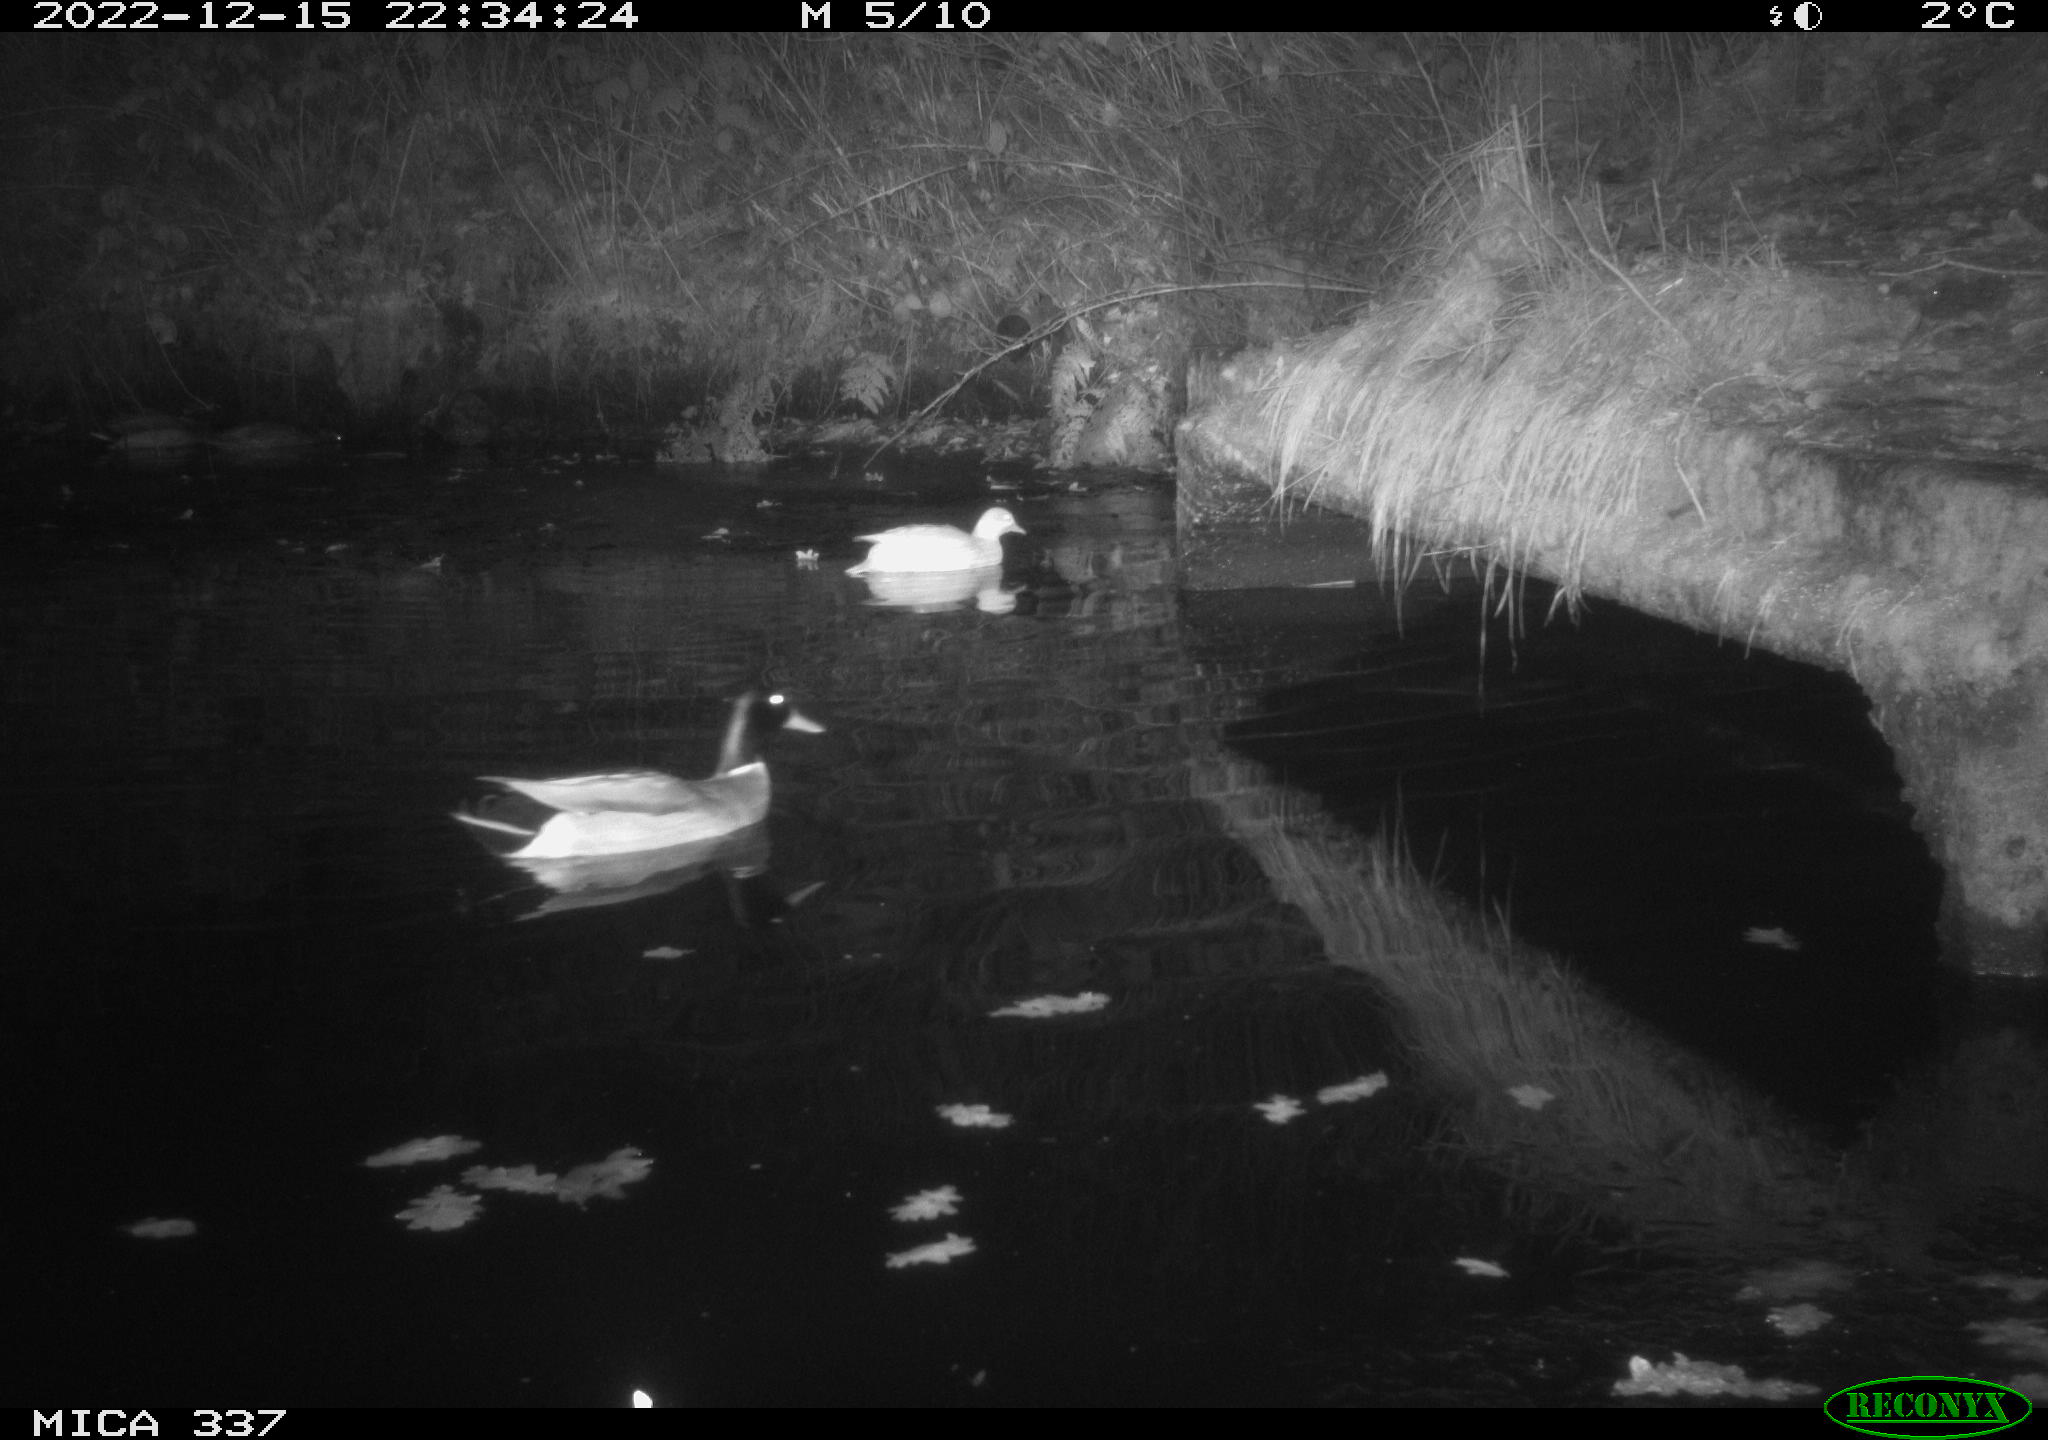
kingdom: Animalia
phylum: Chordata
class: Aves
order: Anseriformes
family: Anatidae
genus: Anas
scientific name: Anas
